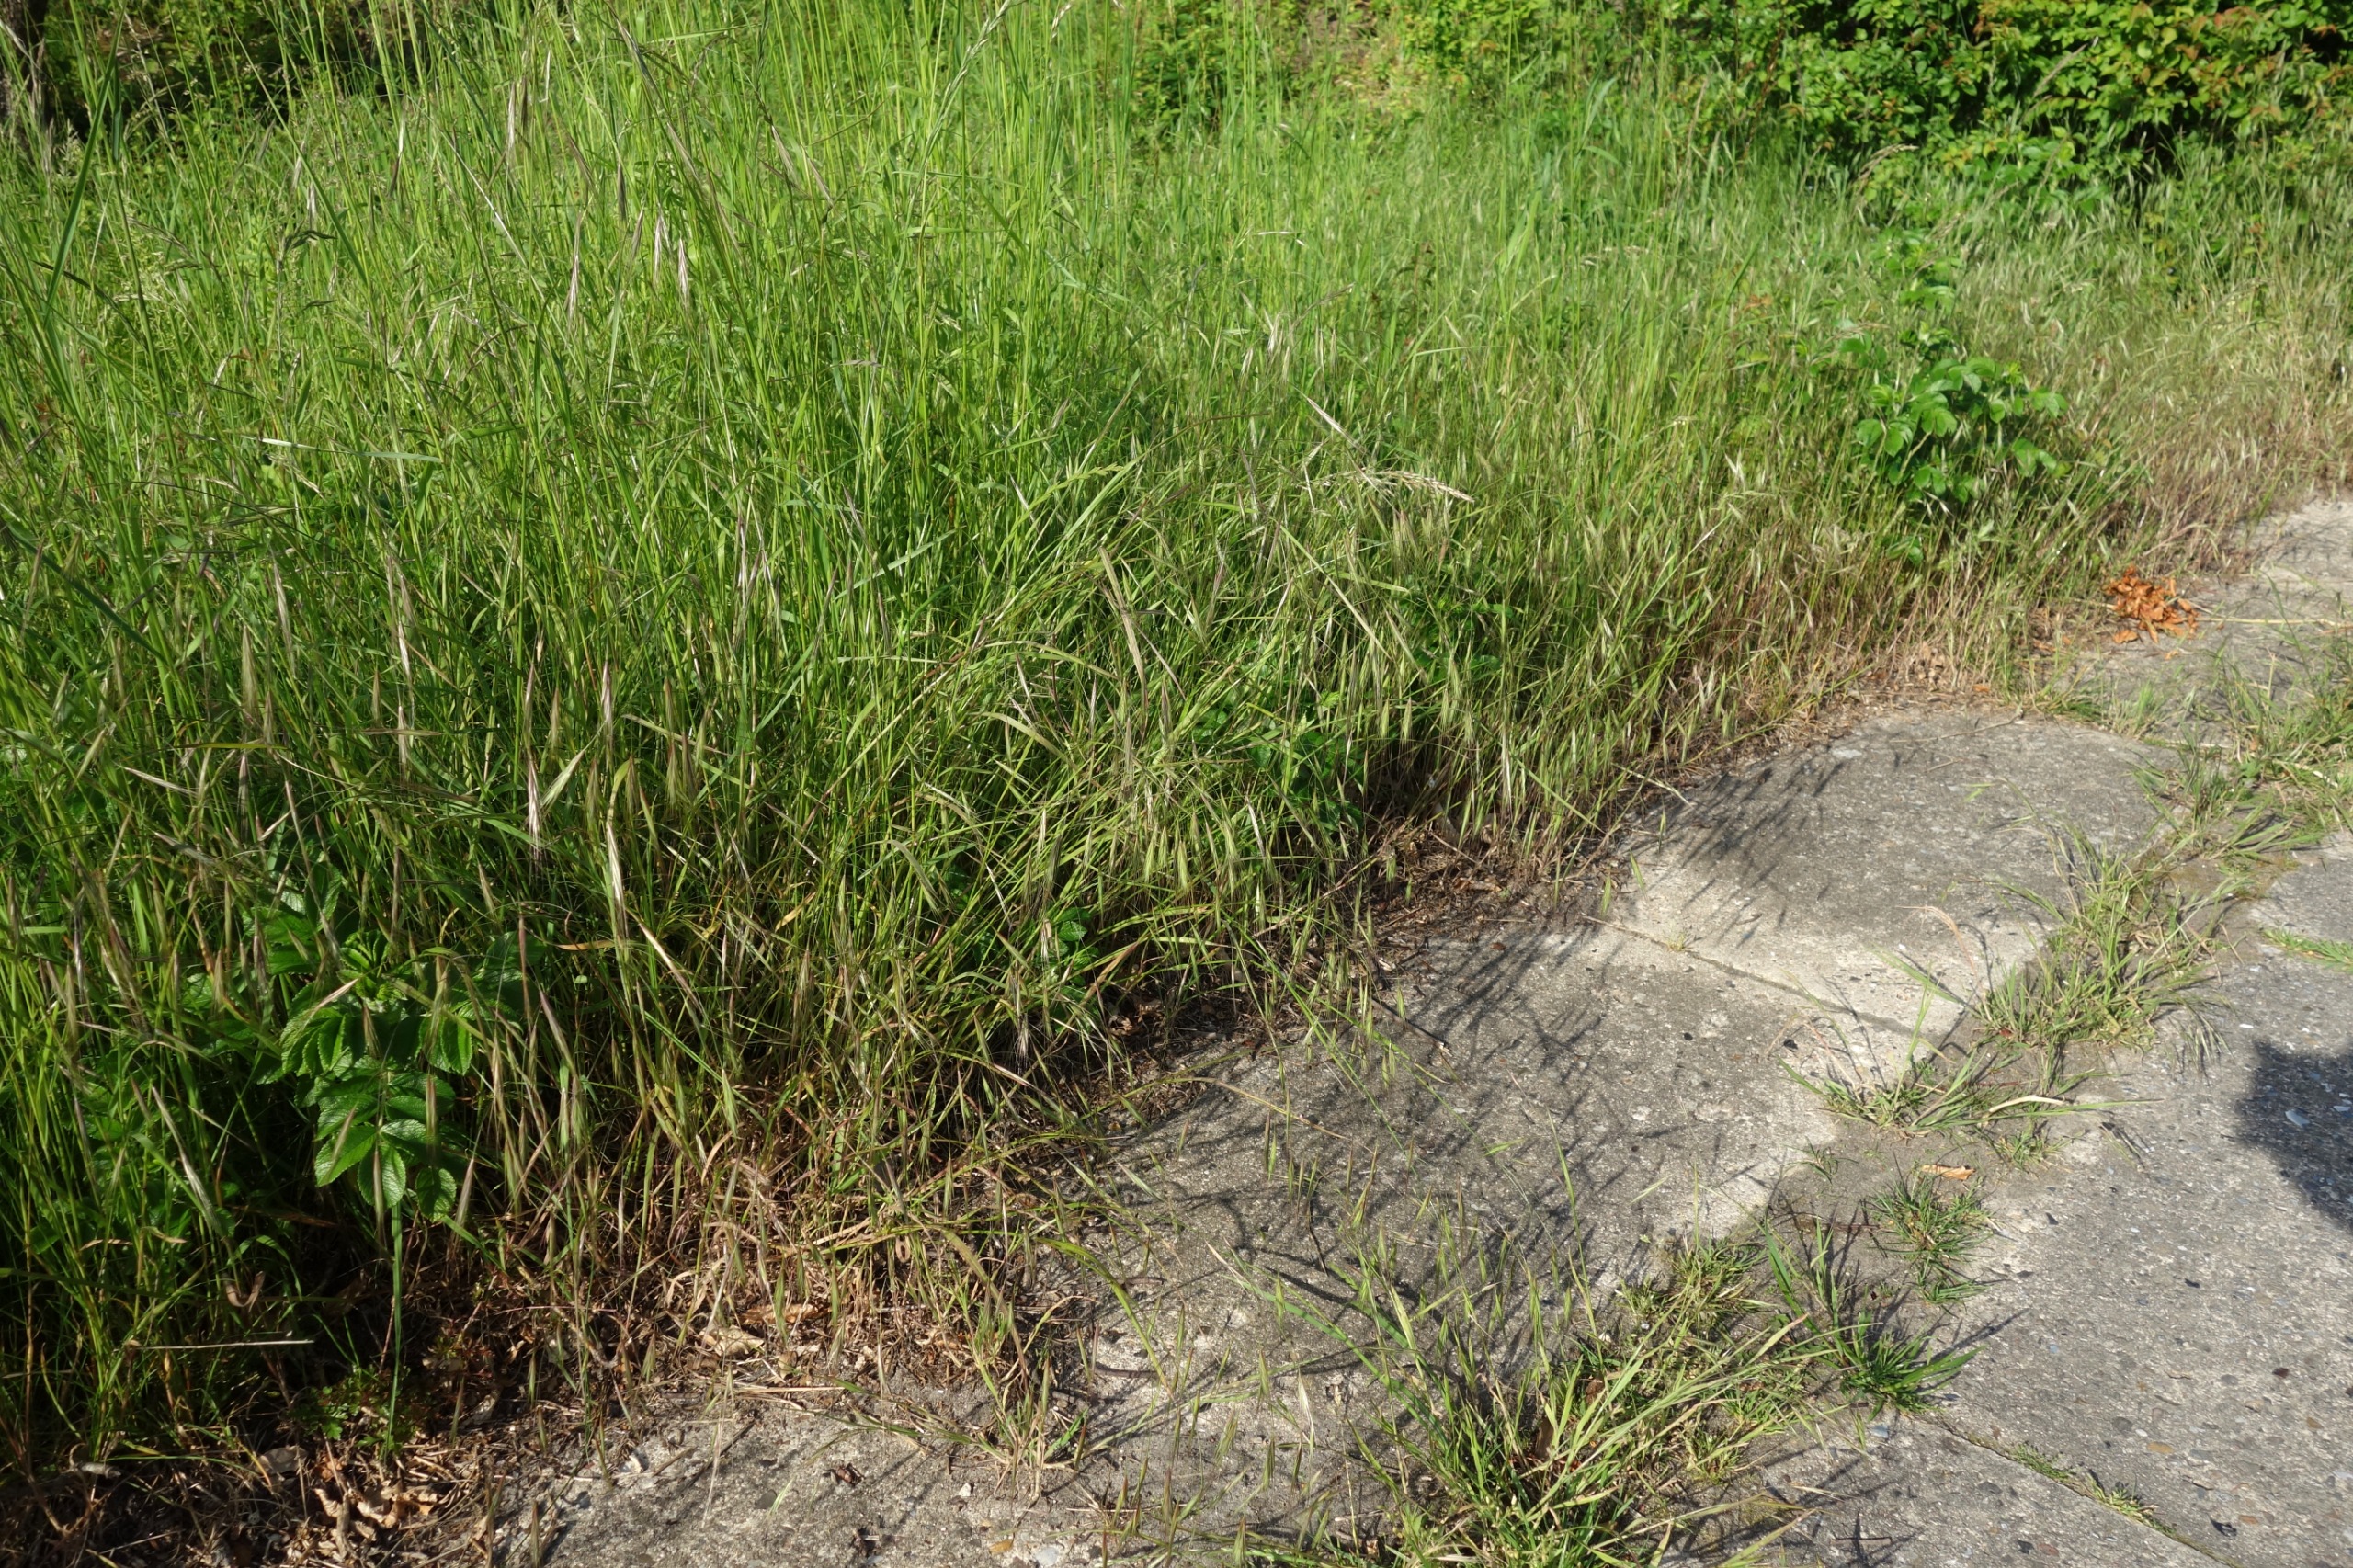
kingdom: Plantae
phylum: Tracheophyta
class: Liliopsida
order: Poales
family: Poaceae
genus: Bromus
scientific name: Bromus sterilis
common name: Gold hejre
